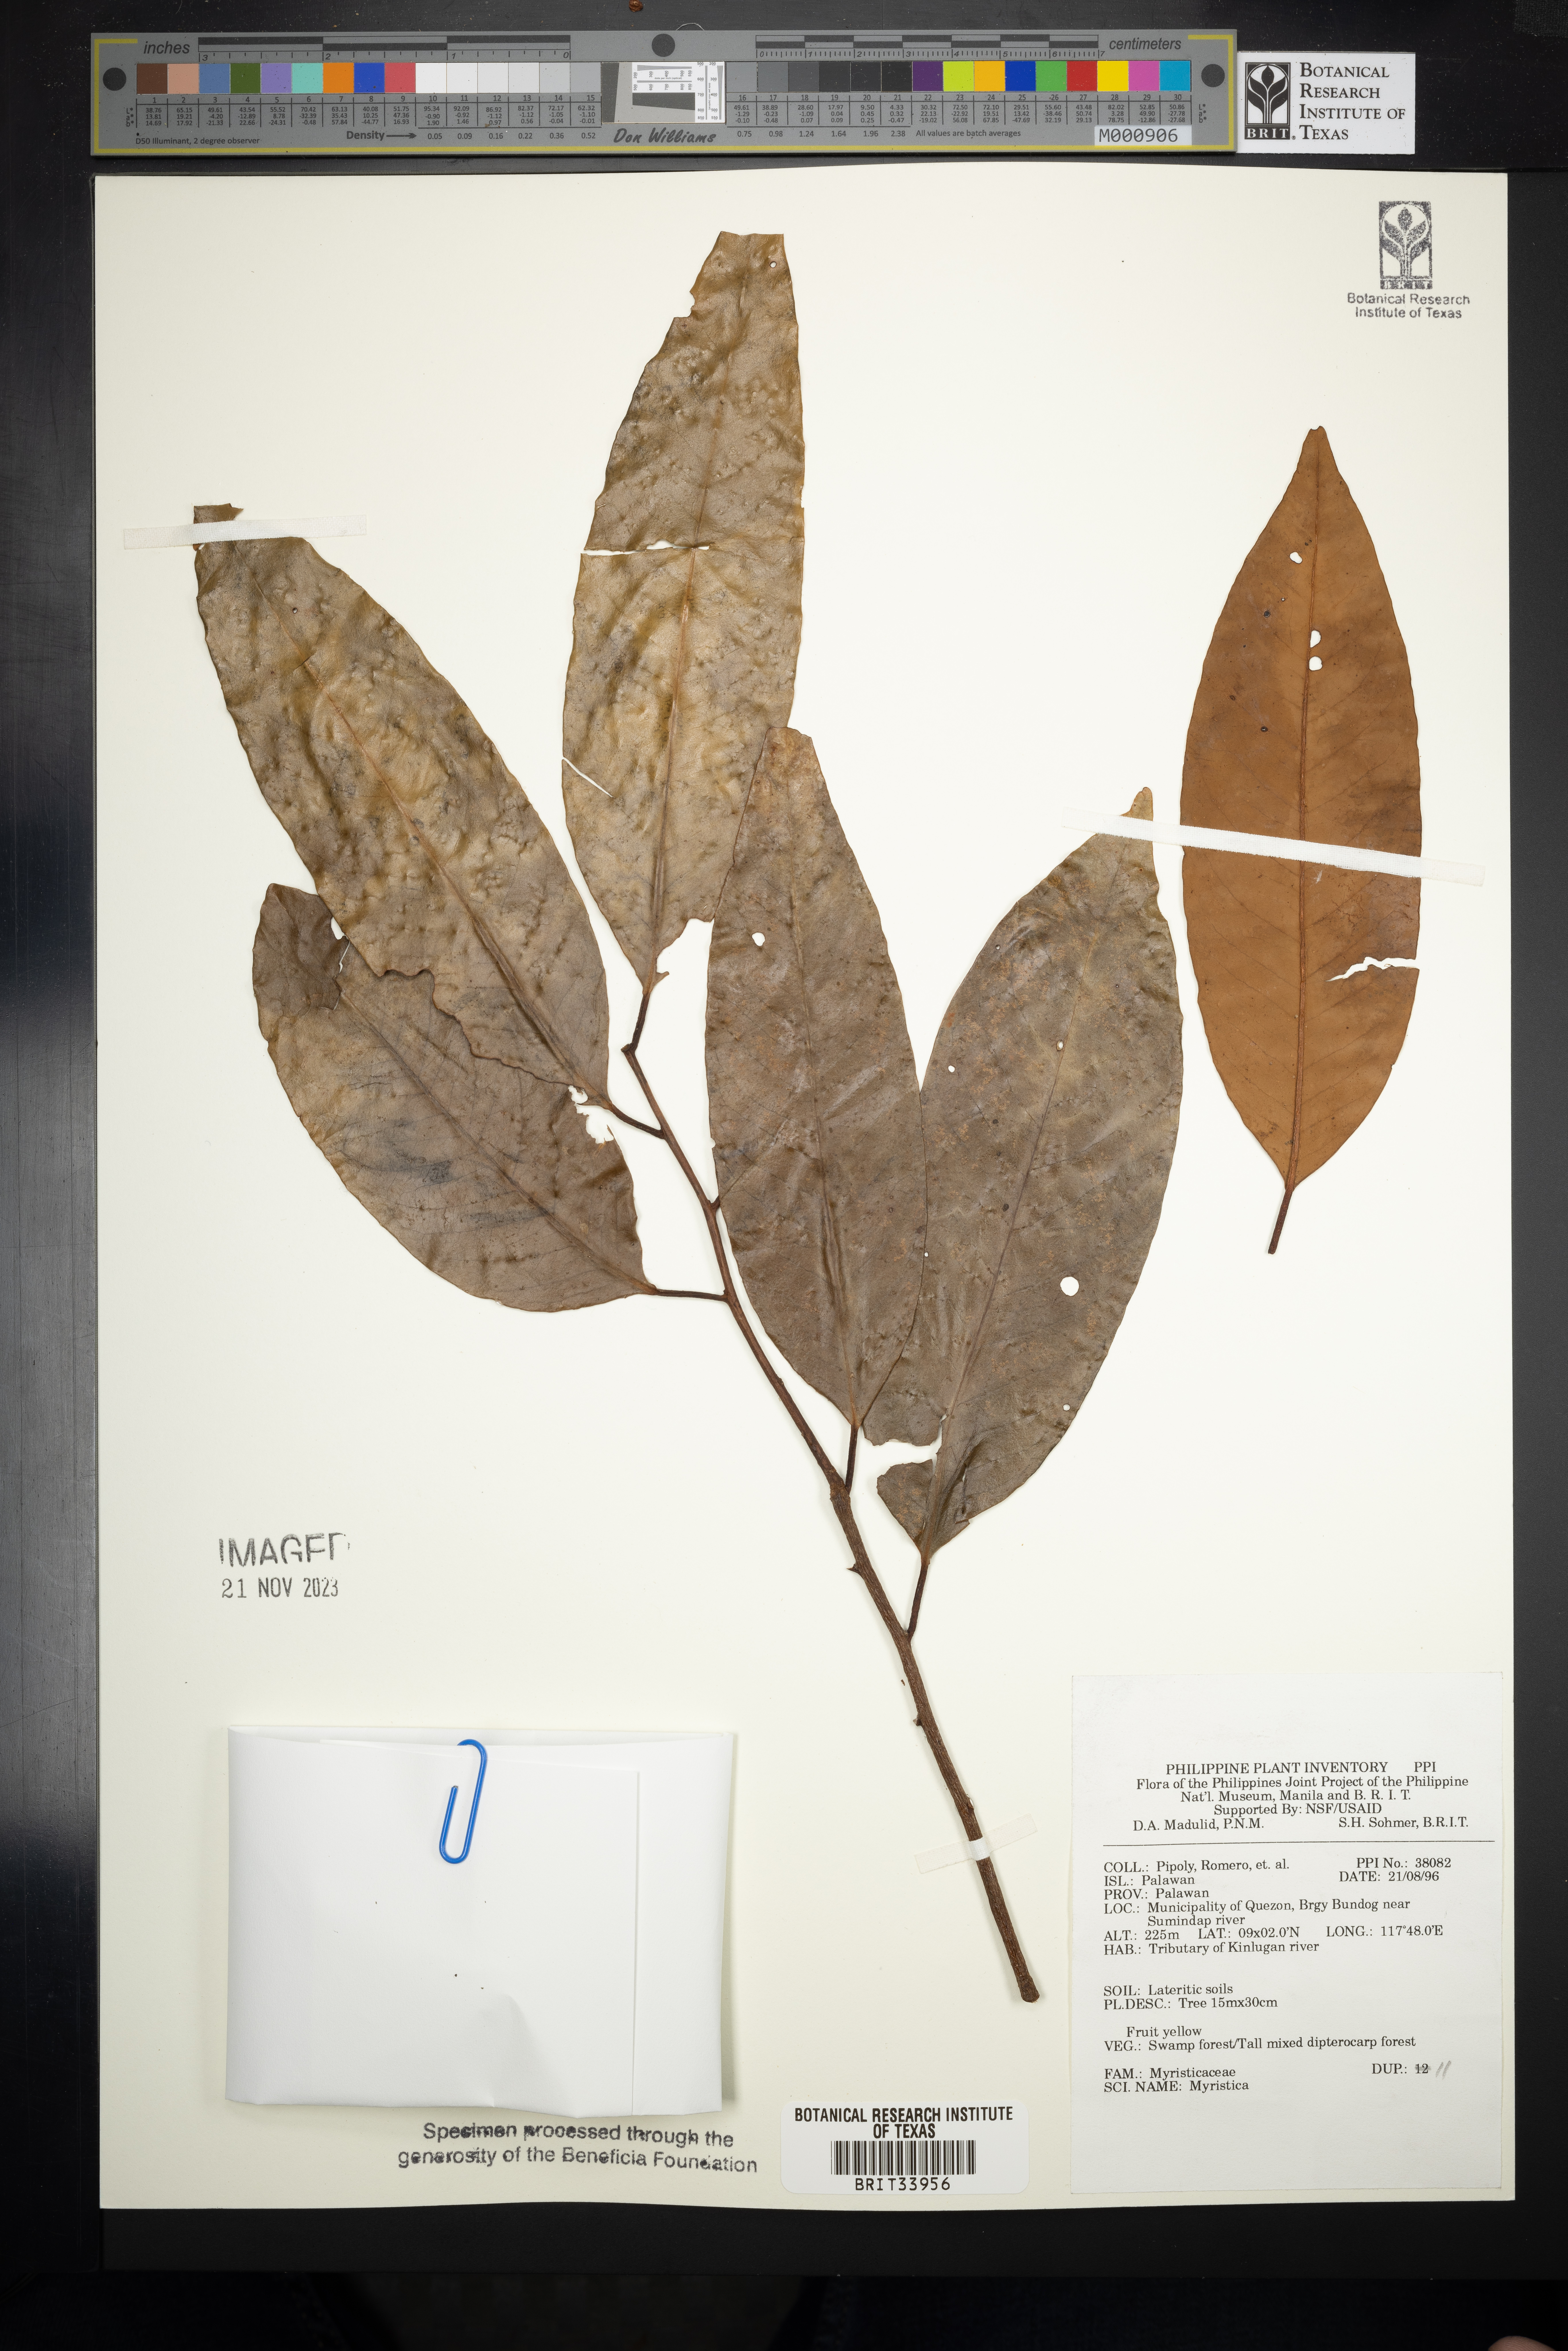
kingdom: Plantae
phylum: Tracheophyta
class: Magnoliopsida
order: Magnoliales
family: Myristicaceae
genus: Myristica
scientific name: Myristica
